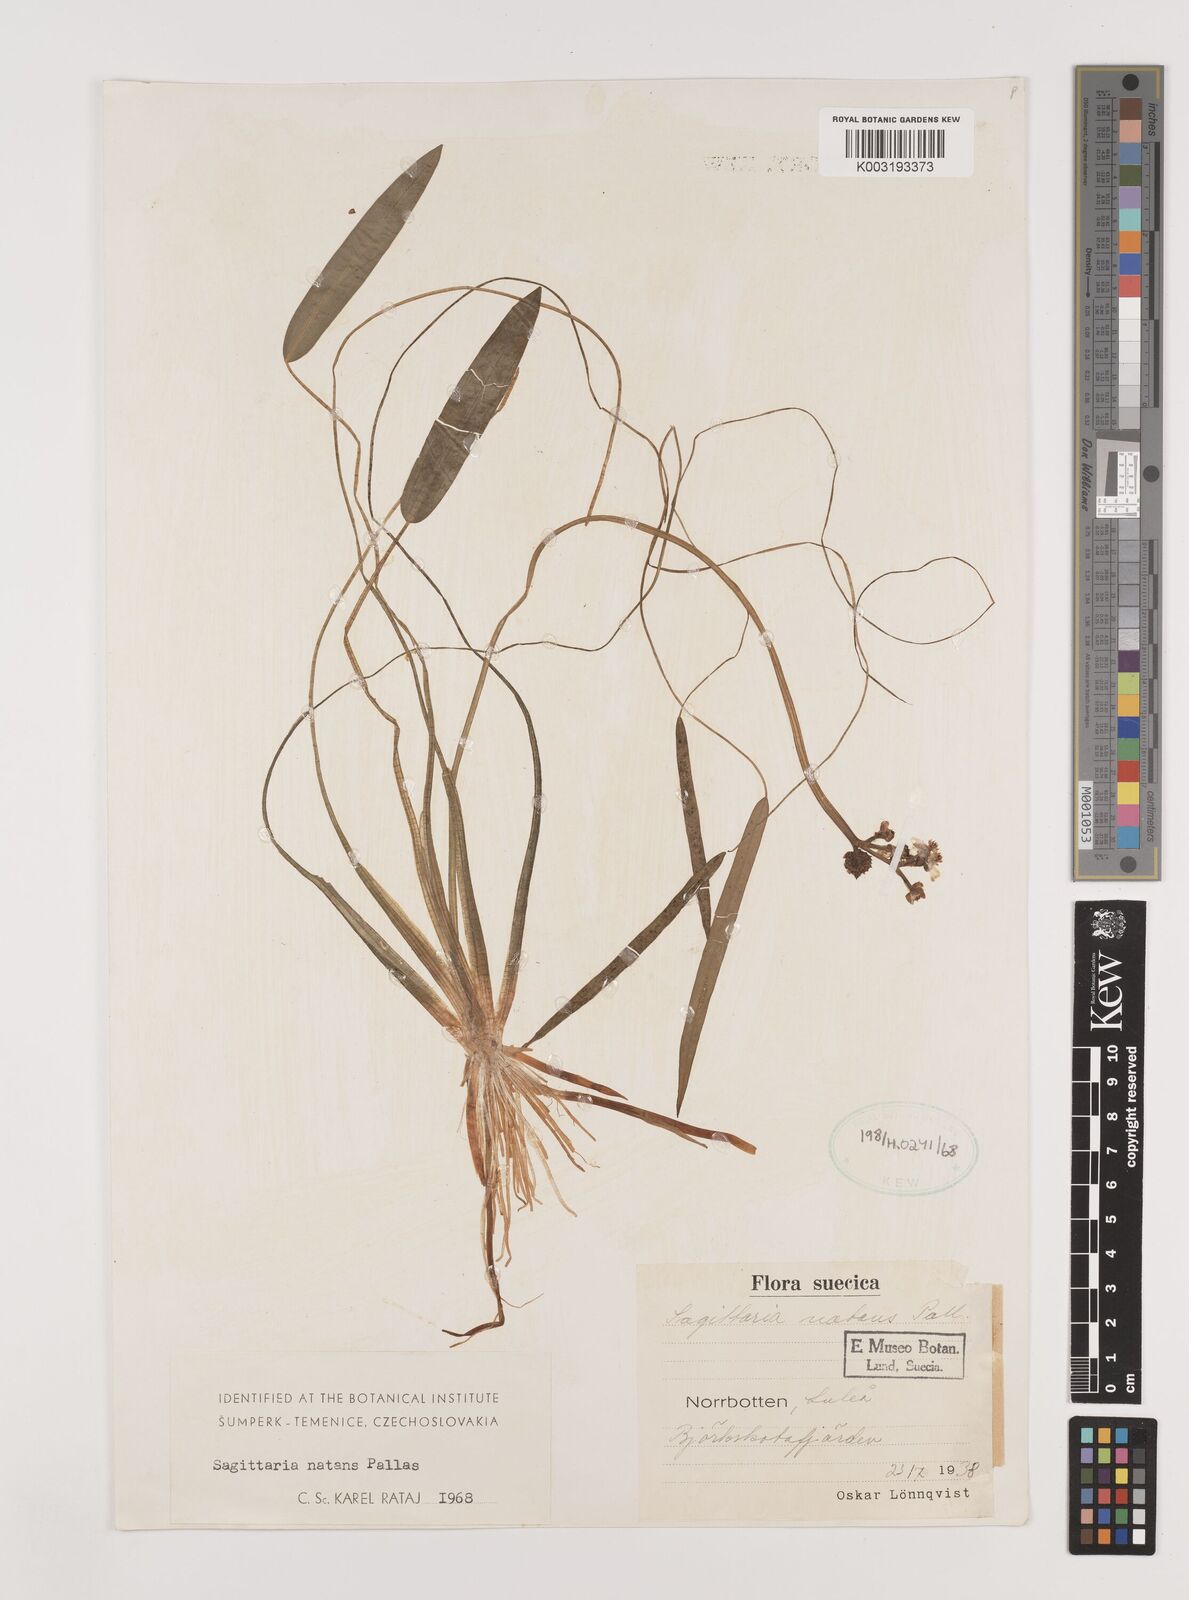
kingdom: Plantae
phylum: Tracheophyta
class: Liliopsida
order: Alismatales
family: Alismataceae
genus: Sagittaria
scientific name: Sagittaria natans
